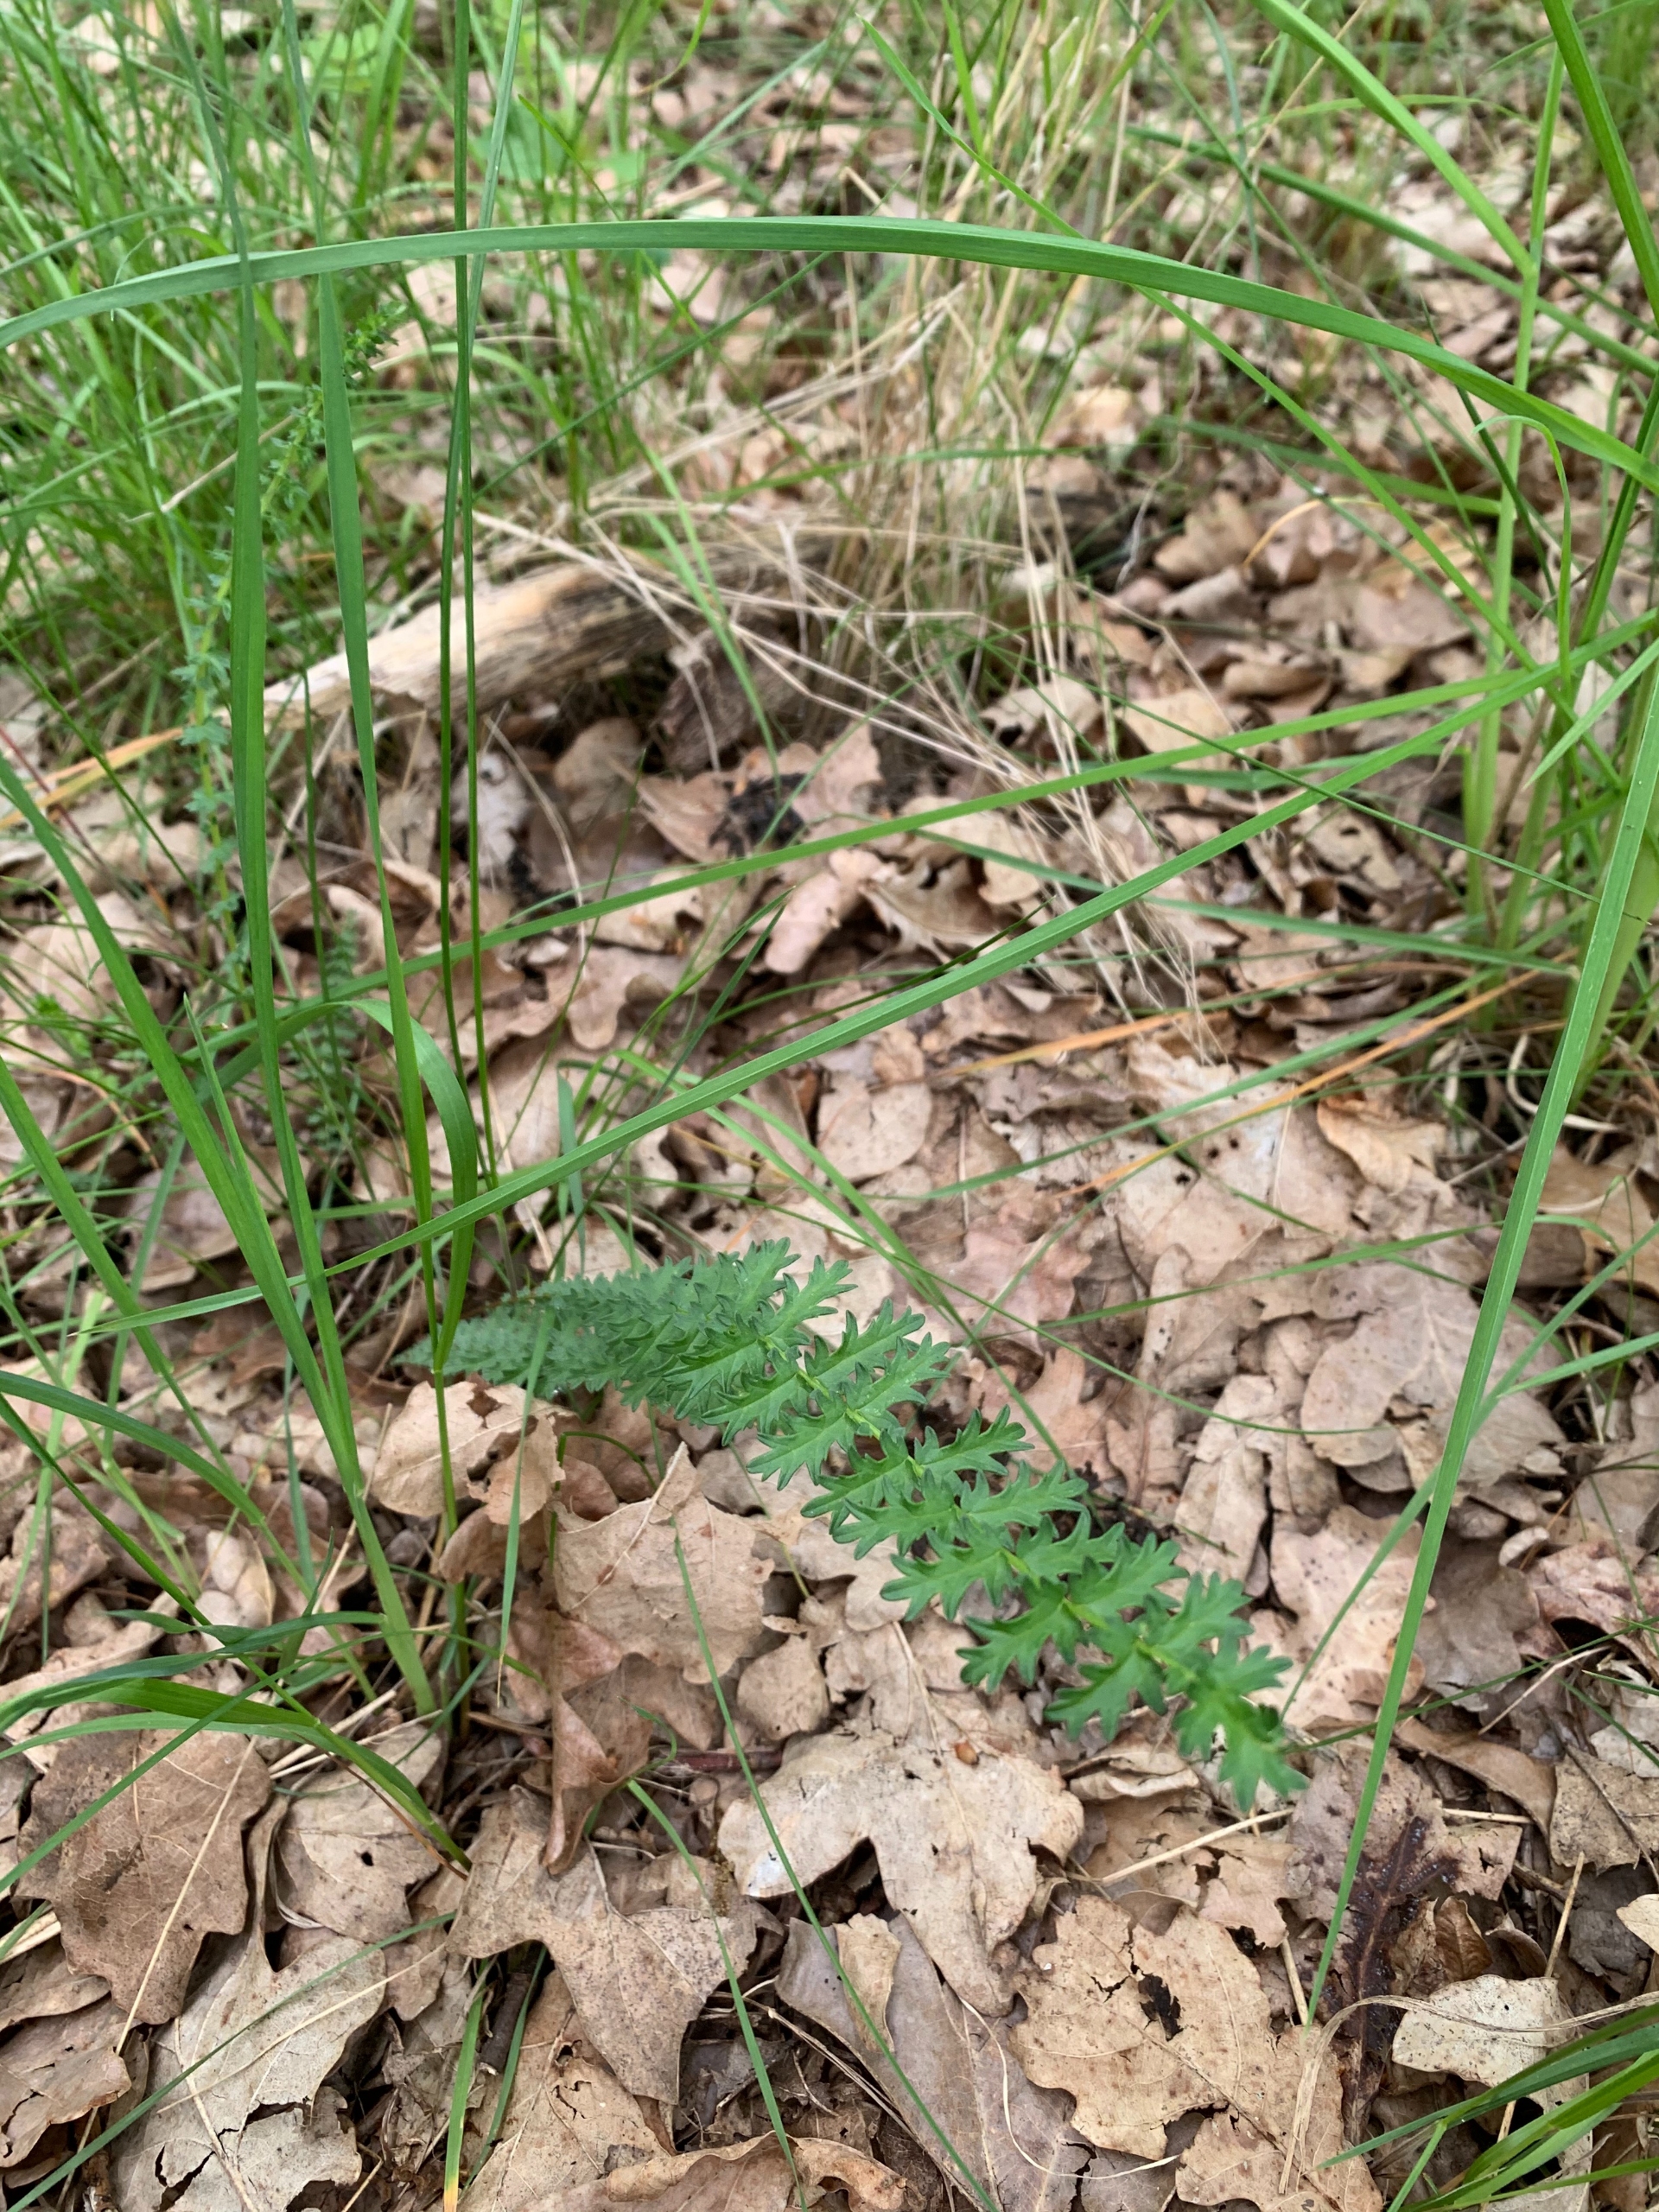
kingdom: Plantae
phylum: Tracheophyta
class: Magnoliopsida
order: Rosales
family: Rosaceae
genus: Filipendula
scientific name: Filipendula vulgaris
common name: Knoldet mjødurt
